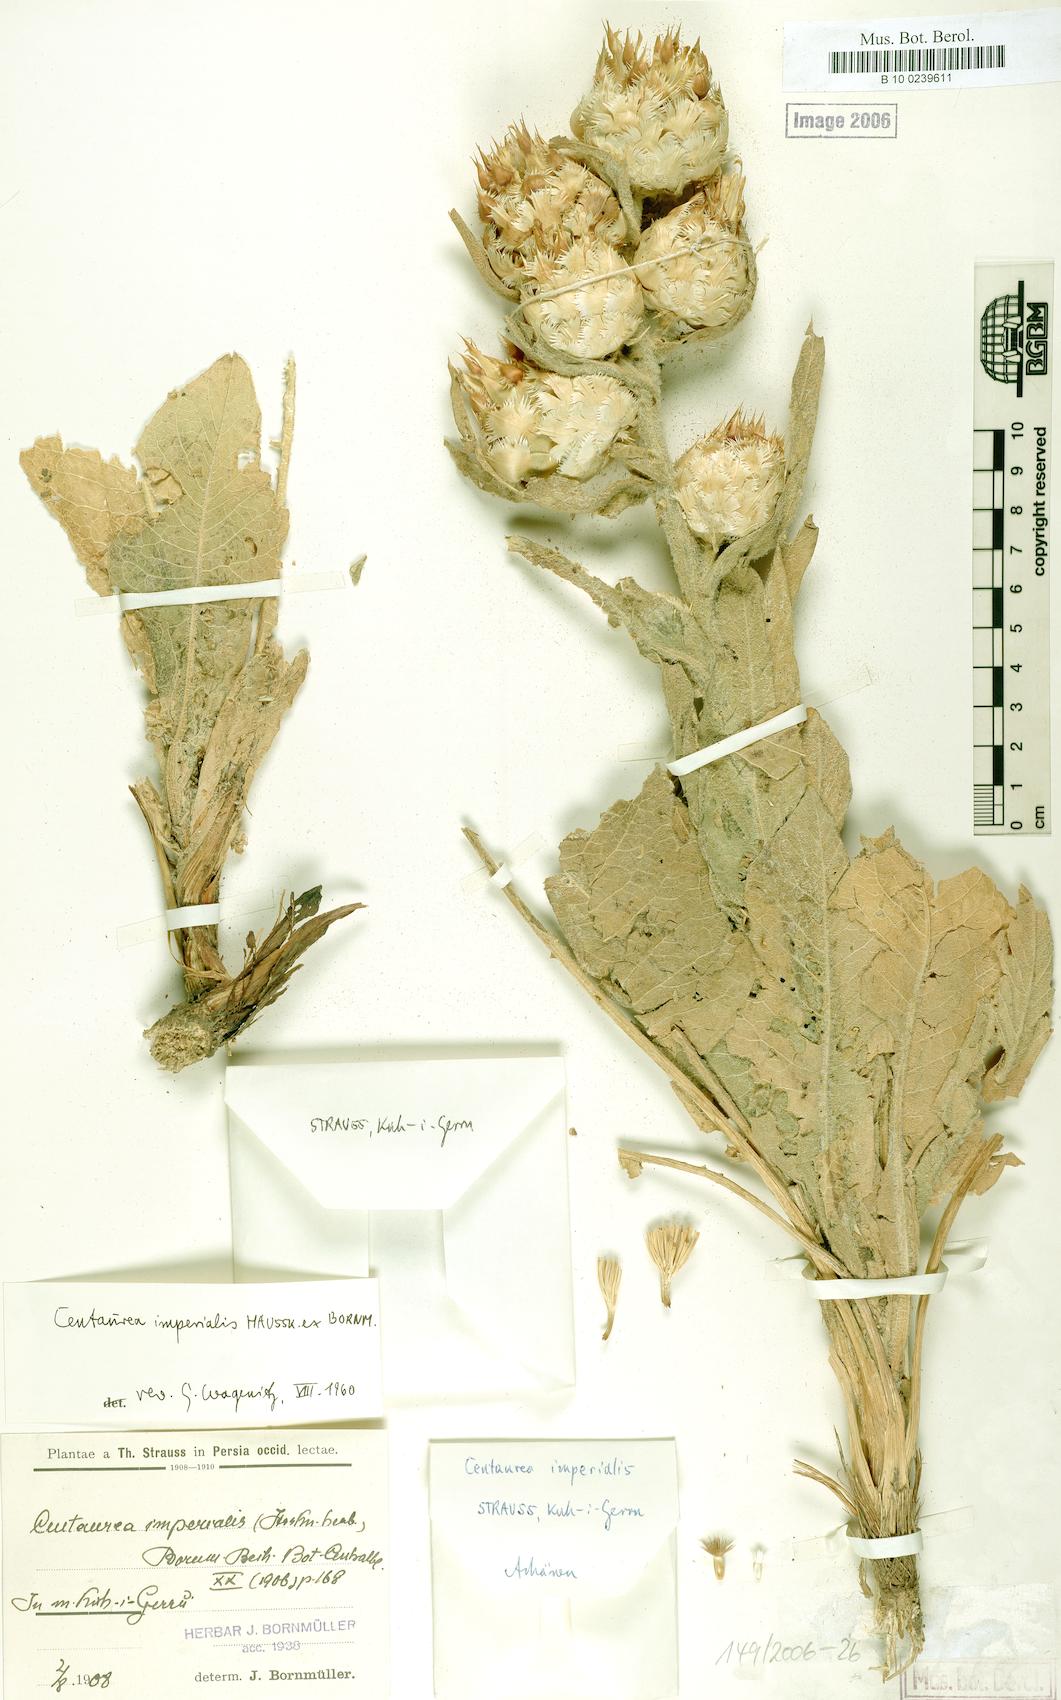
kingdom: Plantae
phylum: Tracheophyta
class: Magnoliopsida
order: Asterales
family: Asteraceae
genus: Centaurea
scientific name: Centaurea imperialis
